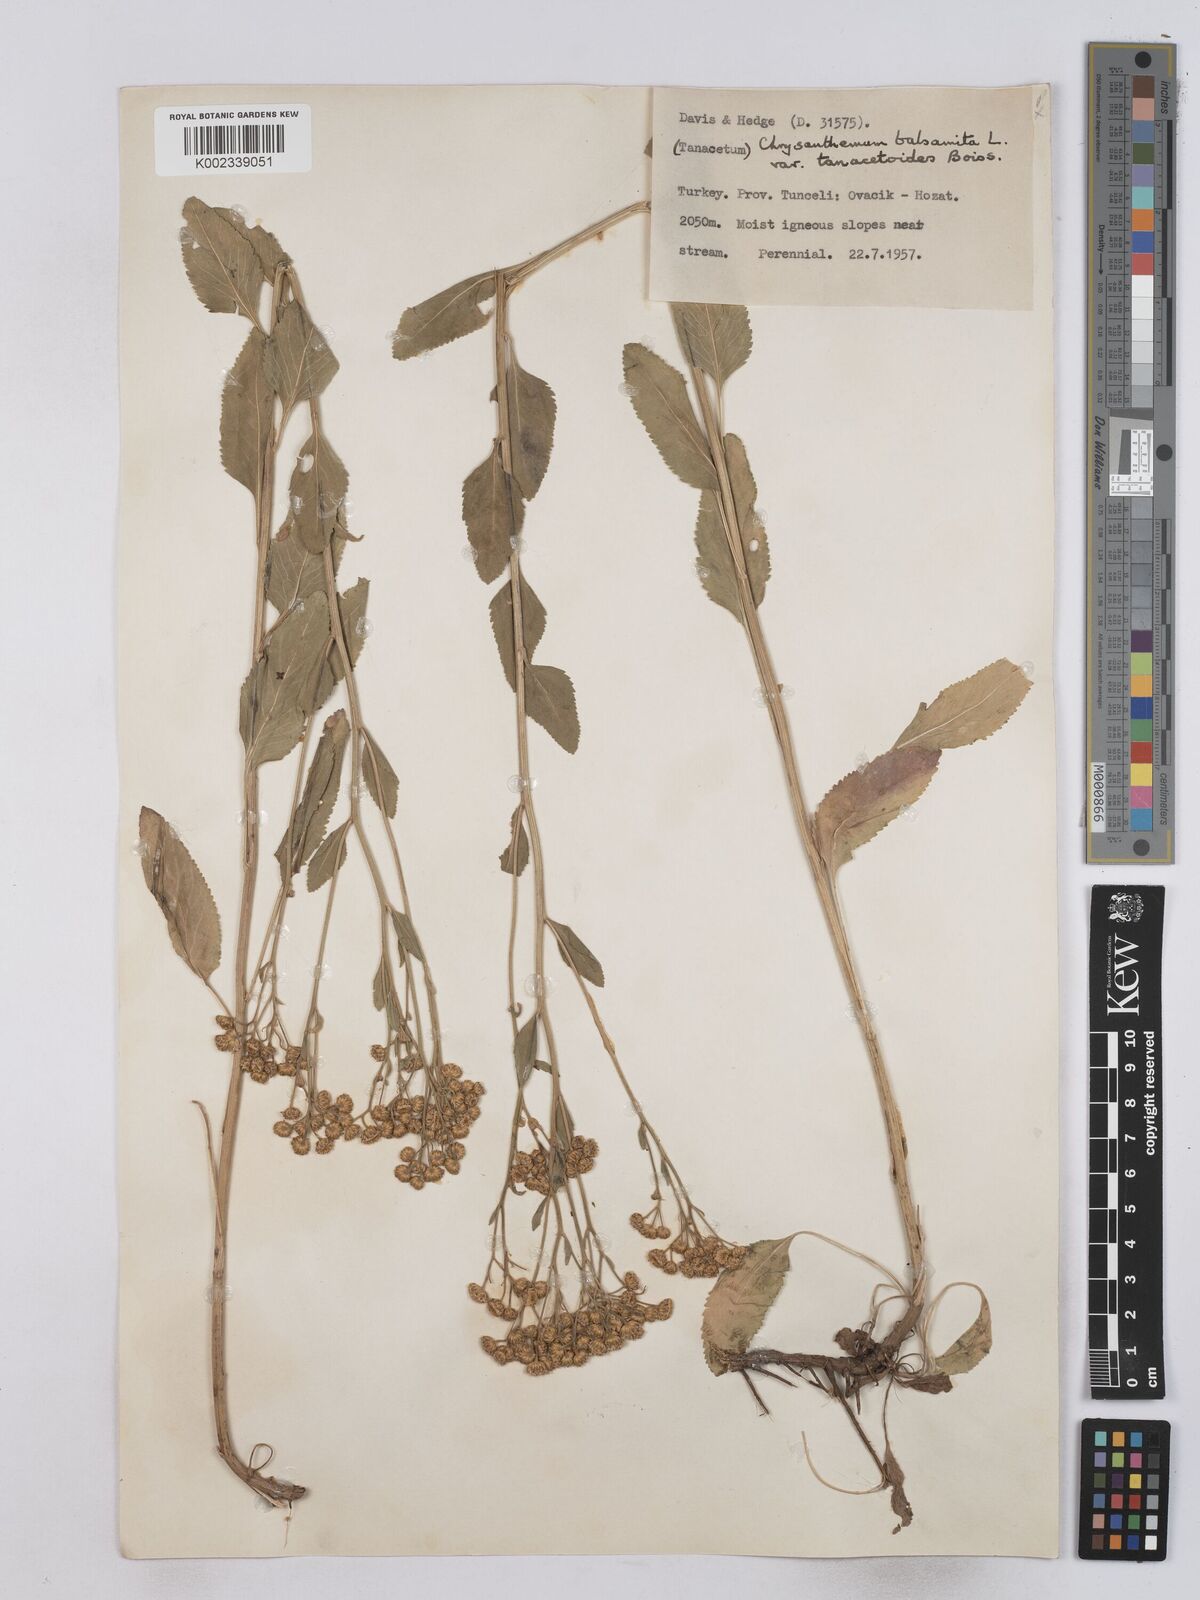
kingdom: Plantae
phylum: Tracheophyta
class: Magnoliopsida
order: Asterales
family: Asteraceae
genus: Tanacetum
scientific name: Tanacetum balsamita
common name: Costmary
